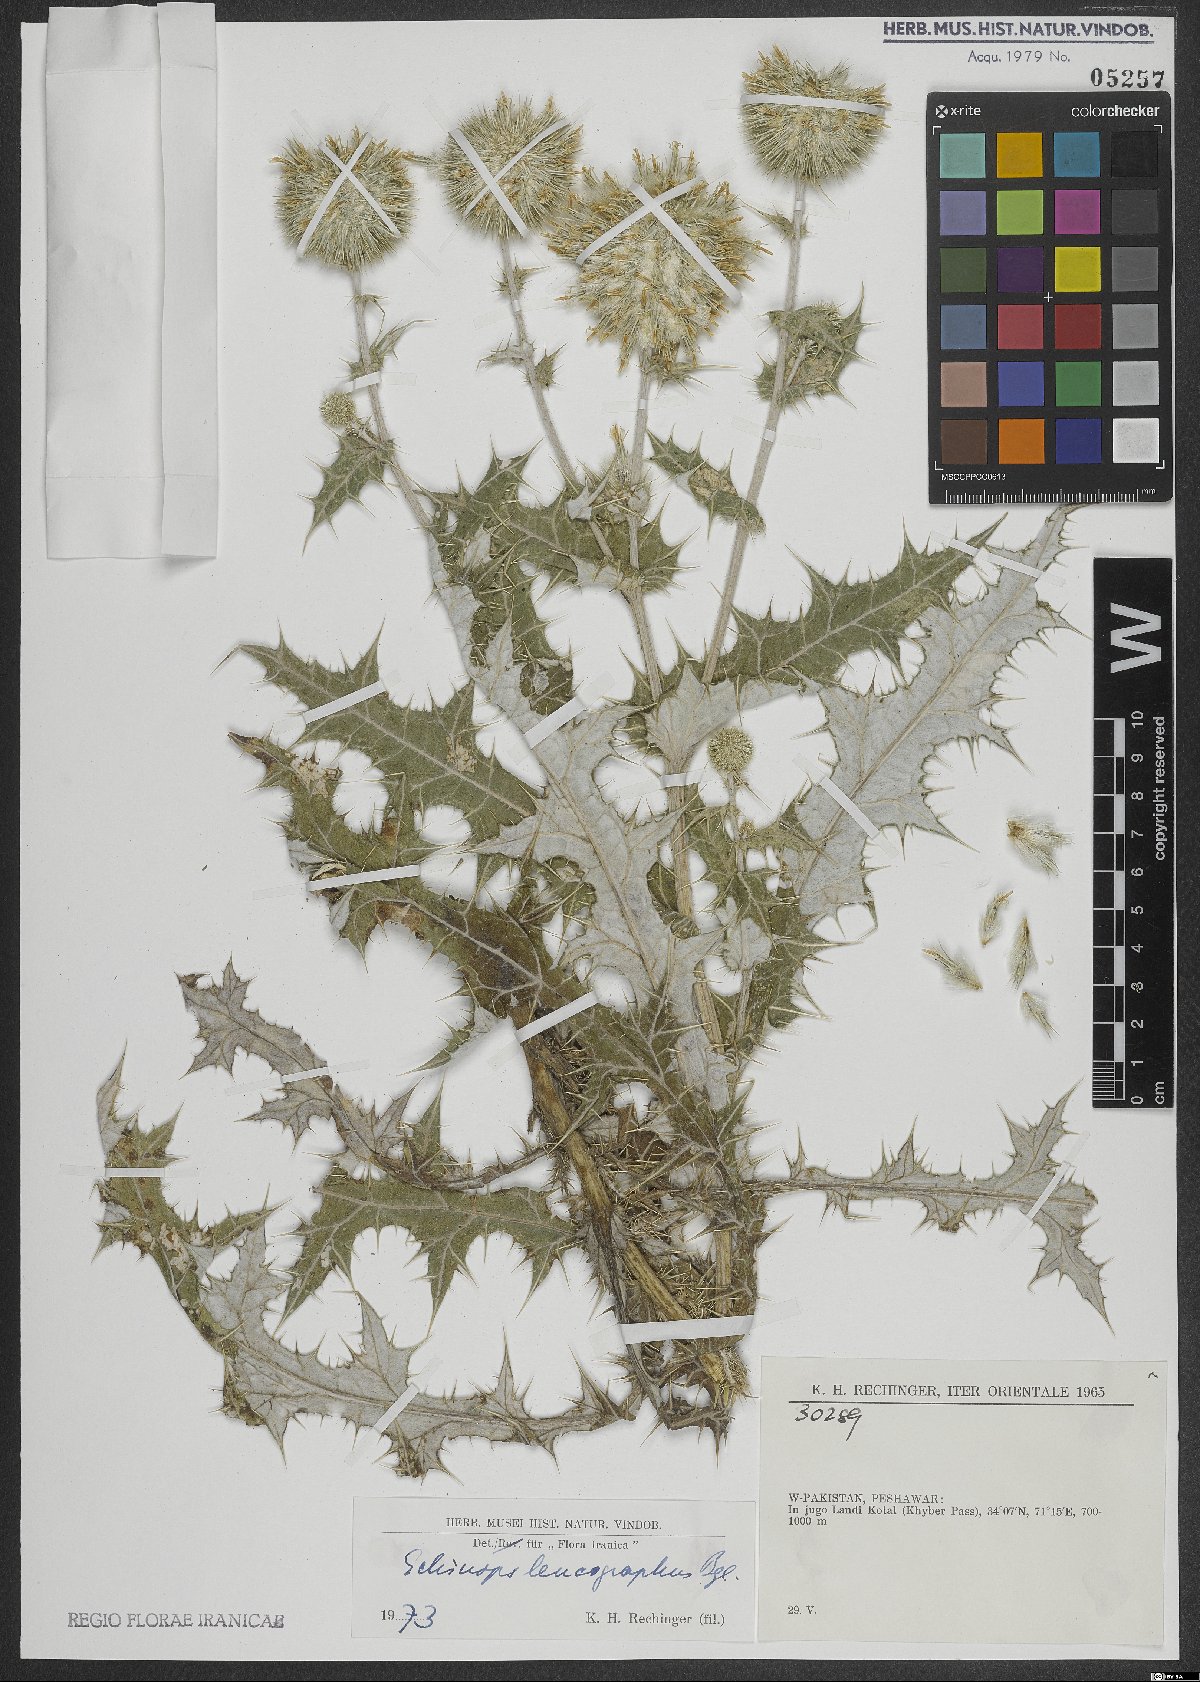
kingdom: Plantae
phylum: Tracheophyta
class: Magnoliopsida
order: Asterales
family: Asteraceae
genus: Echinops
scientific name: Echinops leucographus
